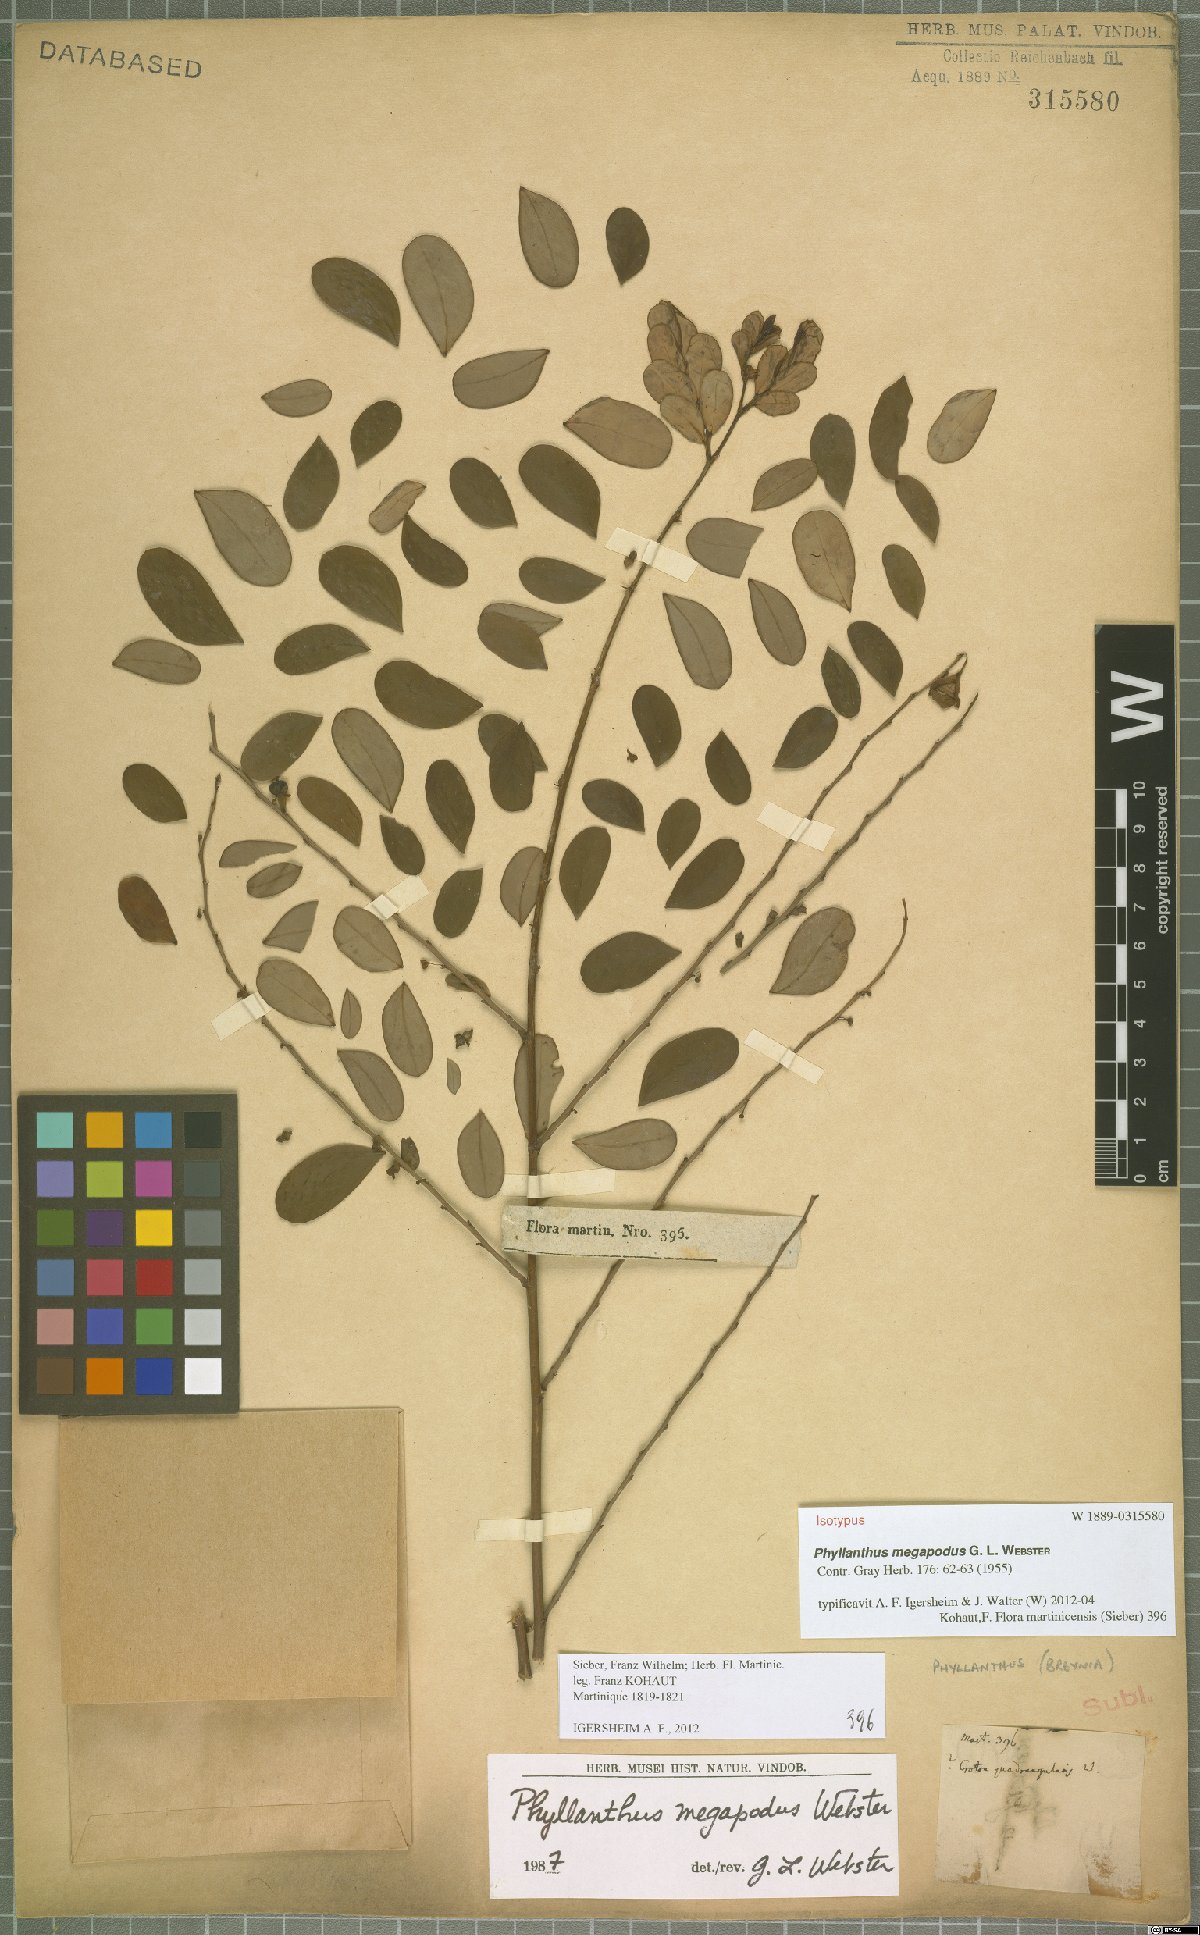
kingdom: Plantae
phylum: Tracheophyta
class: Magnoliopsida
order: Malpighiales
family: Phyllanthaceae
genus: Phyllanthus
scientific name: Phyllanthus megapodus
